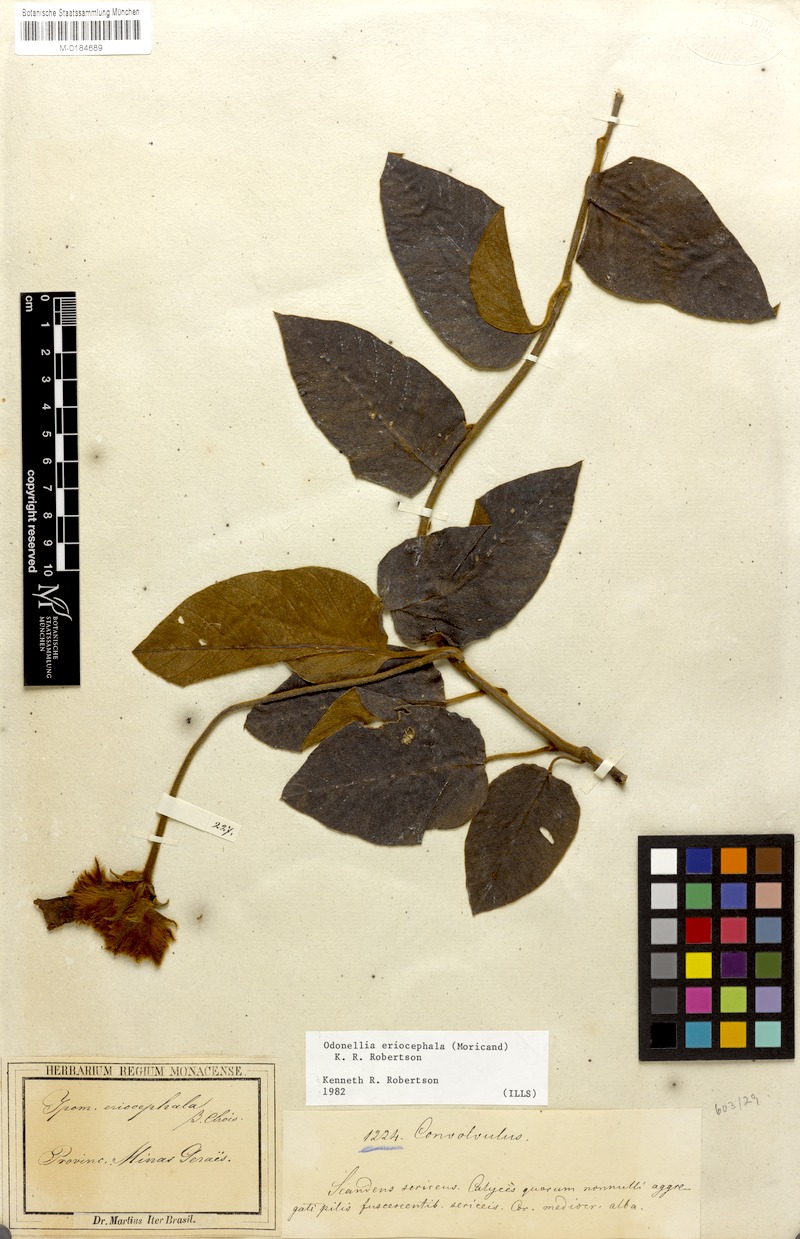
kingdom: Plantae
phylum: Tracheophyta
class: Magnoliopsida
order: Solanales
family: Convolvulaceae
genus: Odonellia
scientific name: Odonellia eriocephala
